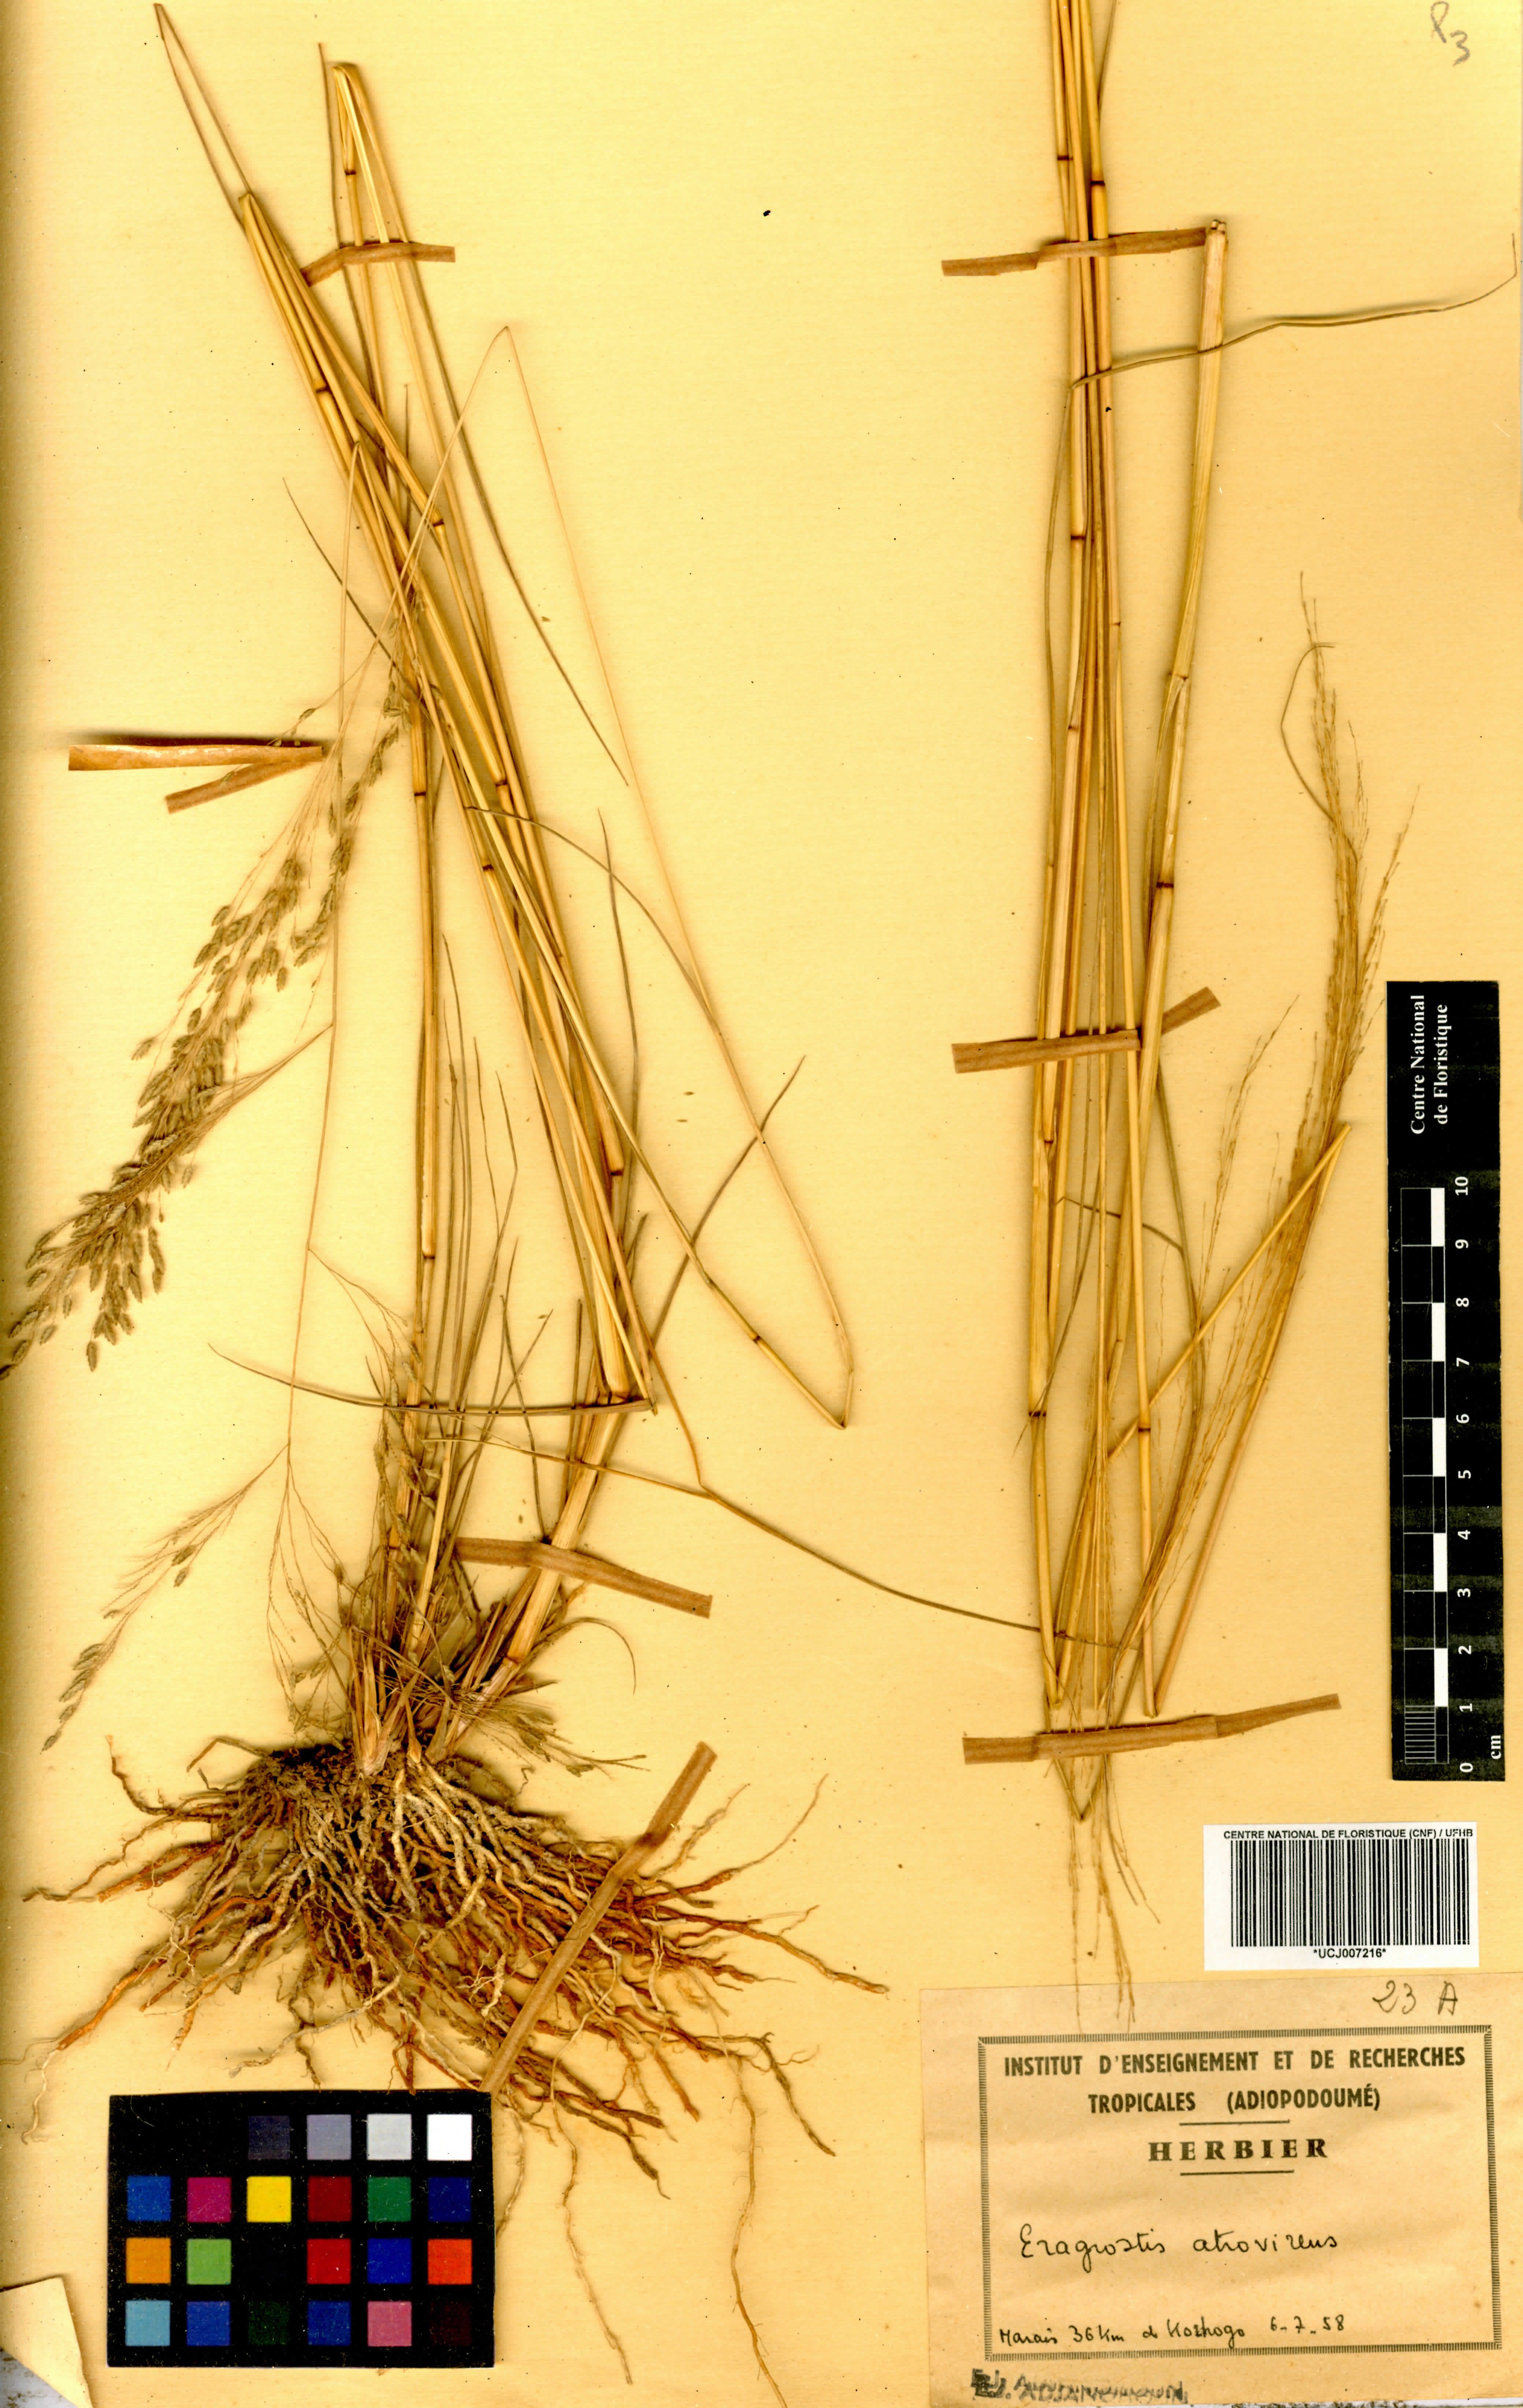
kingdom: Plantae
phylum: Tracheophyta
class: Liliopsida
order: Poales
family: Poaceae
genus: Eragrostis
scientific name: Eragrostis atrovirens
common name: Thalia lovegrass
